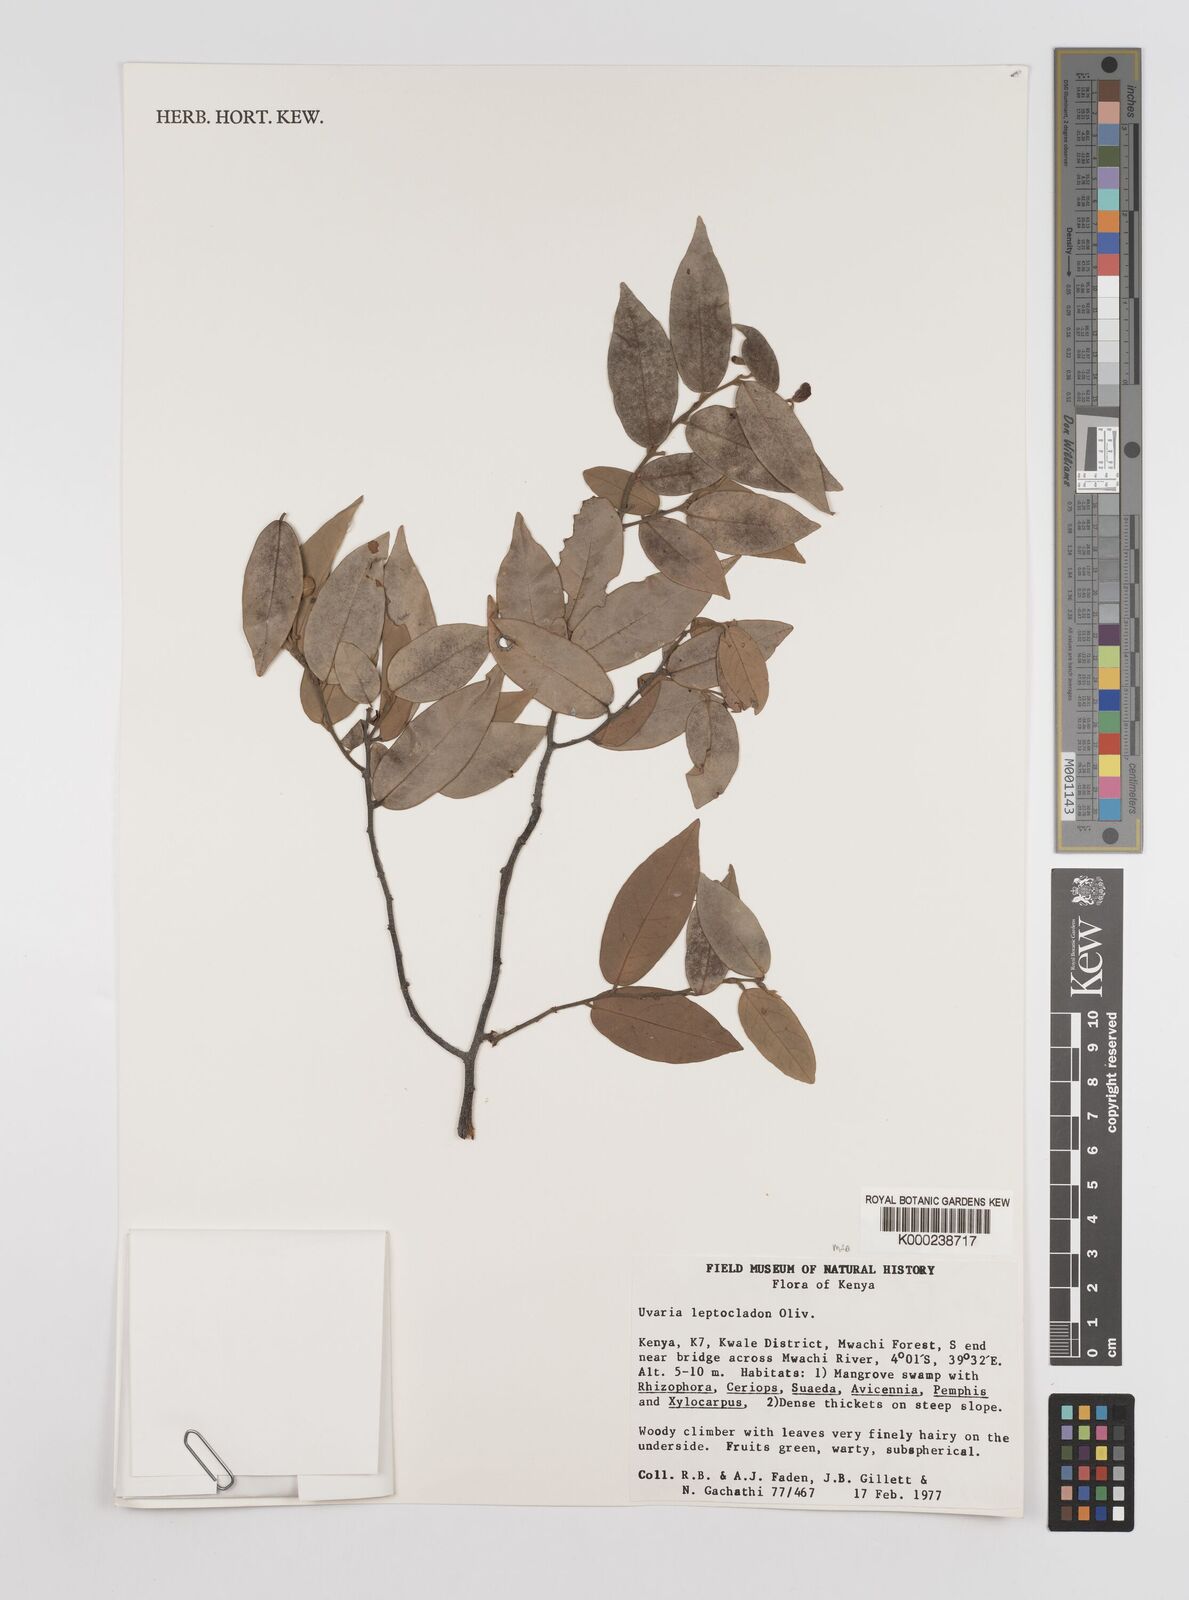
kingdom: Plantae
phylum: Tracheophyta
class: Magnoliopsida
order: Magnoliales
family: Annonaceae
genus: Uvaria
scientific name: Uvaria leptocladon
